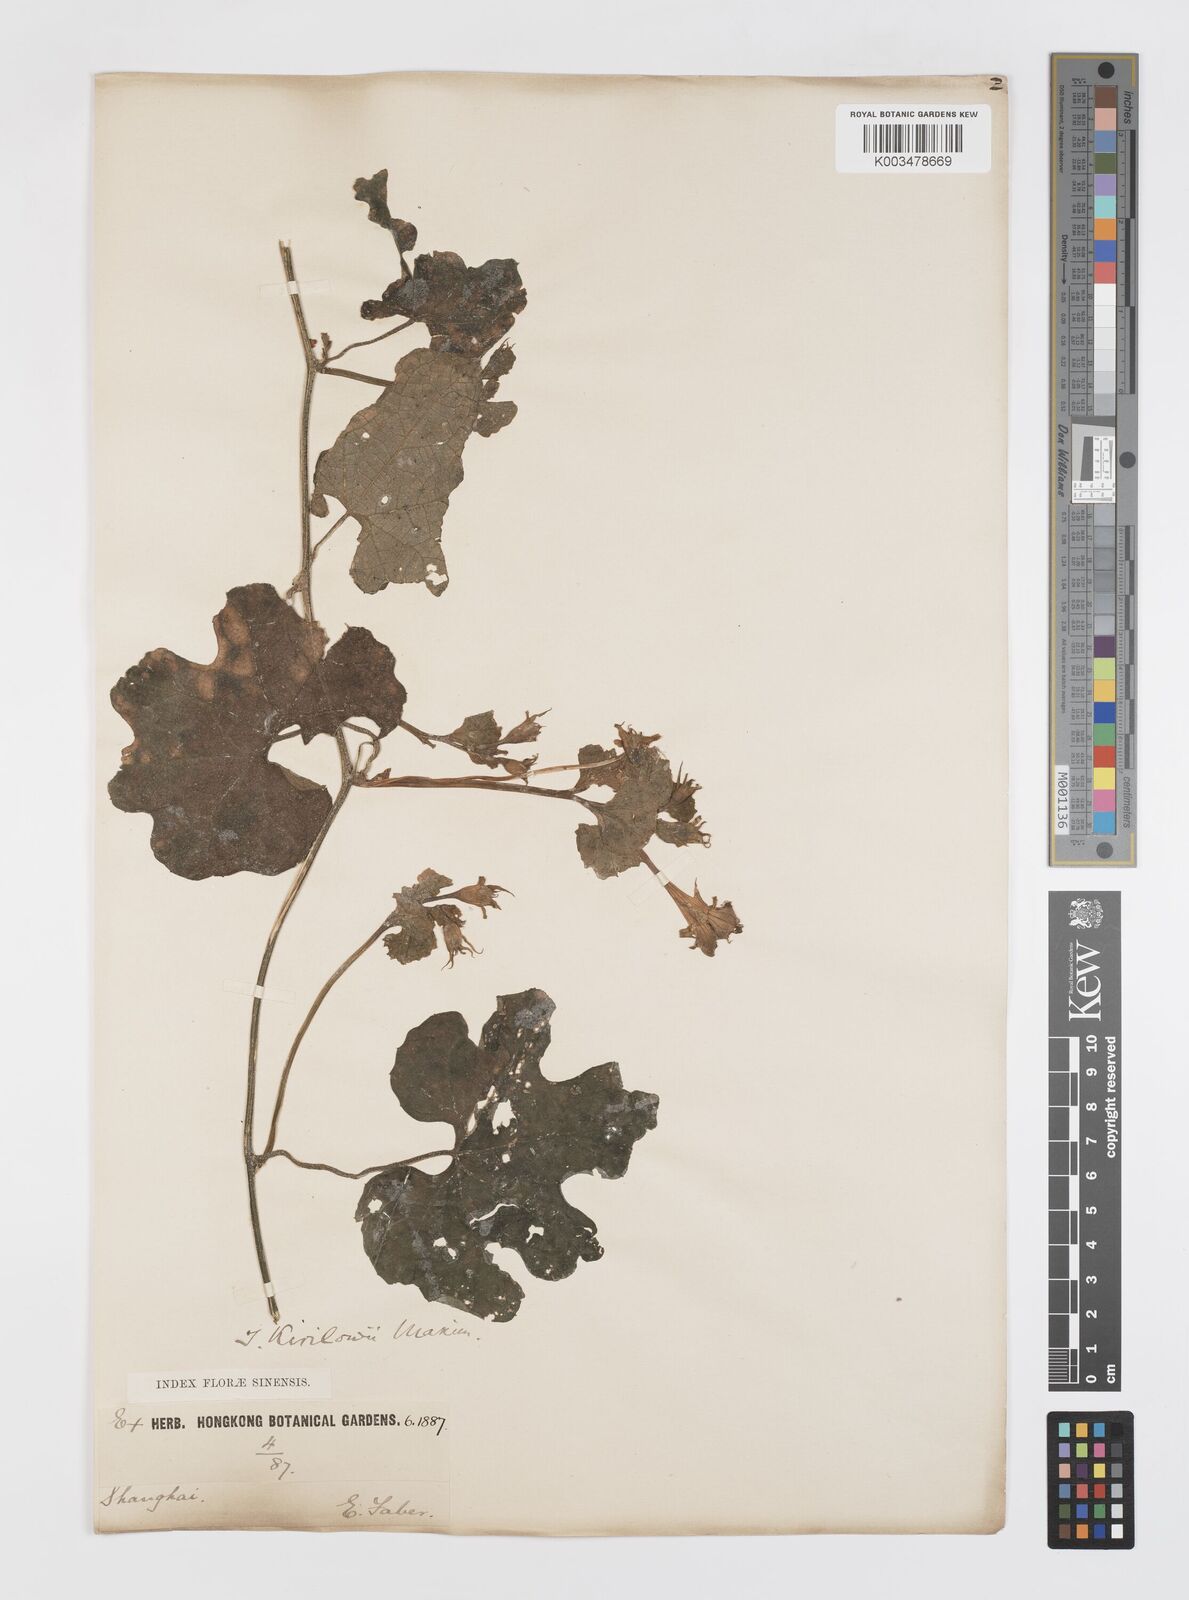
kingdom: Plantae
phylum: Tracheophyta
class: Magnoliopsida
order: Cucurbitales
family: Cucurbitaceae
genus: Trichosanthes
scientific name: Trichosanthes kirilowii
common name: Chinese-cucumber
